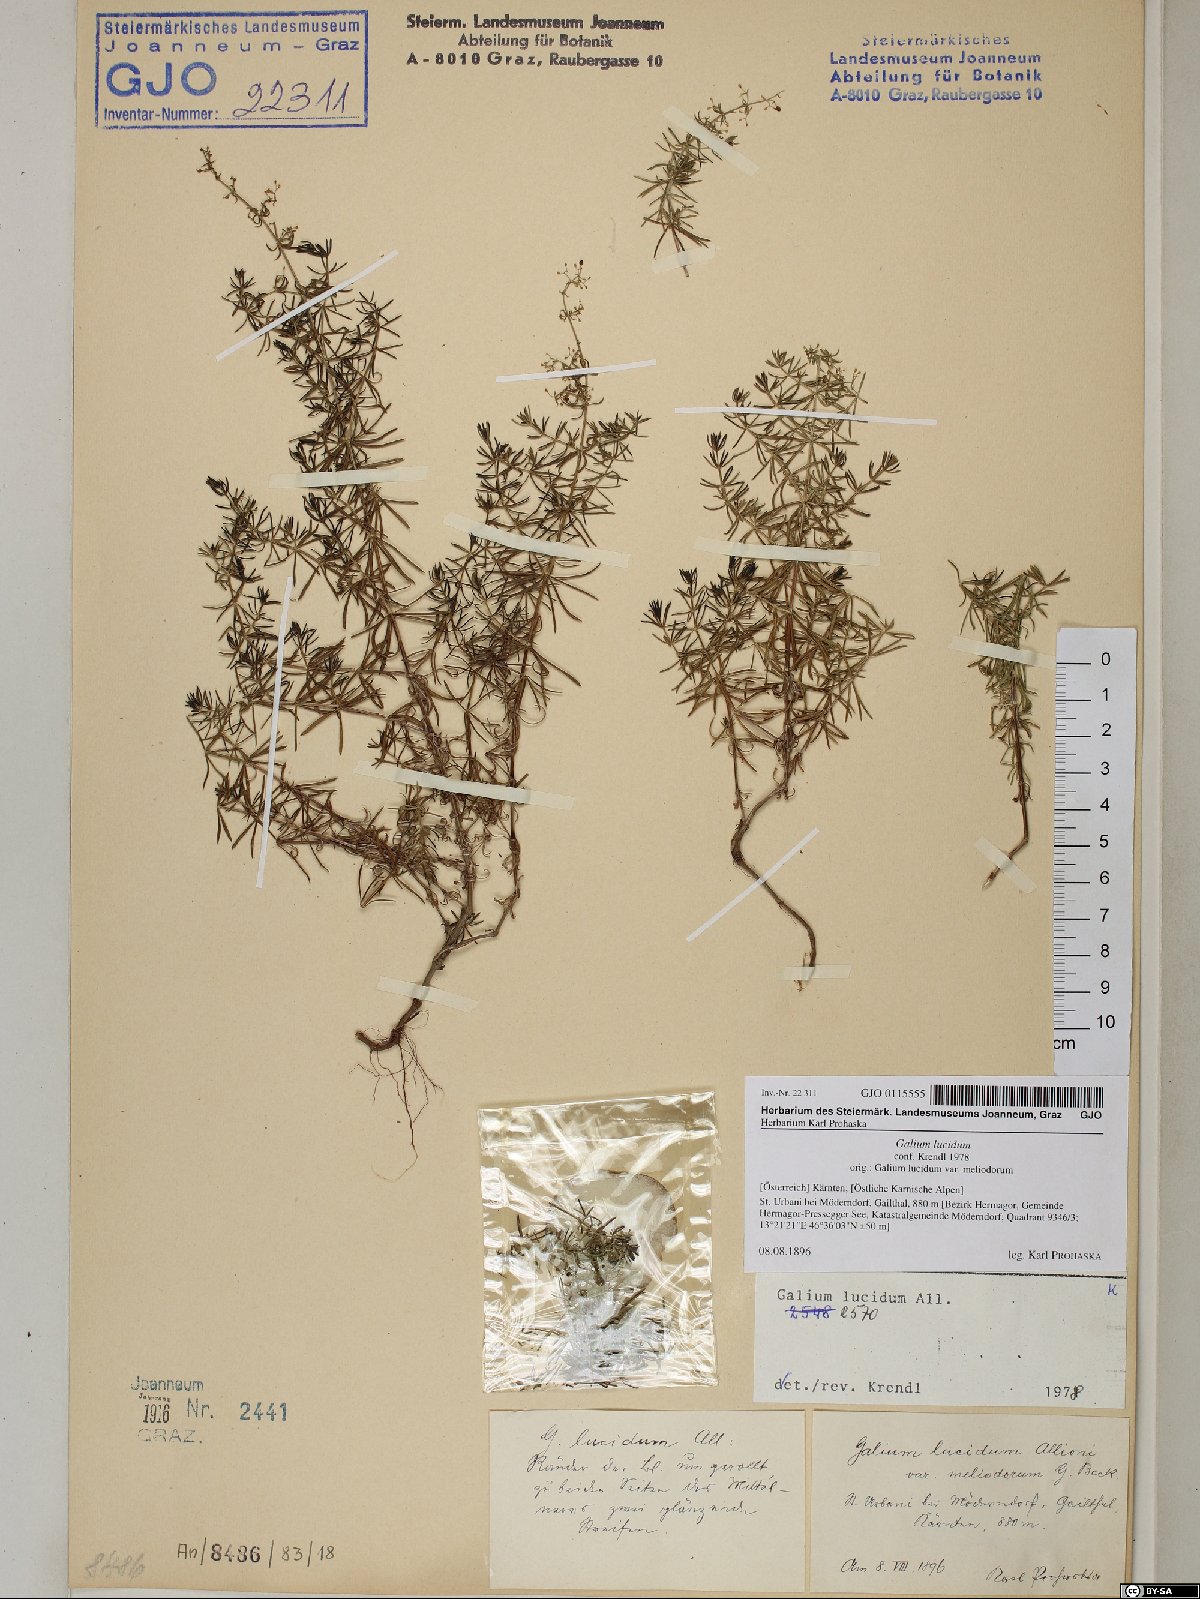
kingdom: Plantae
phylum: Tracheophyta
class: Magnoliopsida
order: Gentianales
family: Rubiaceae
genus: Galium
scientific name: Galium lucidum
